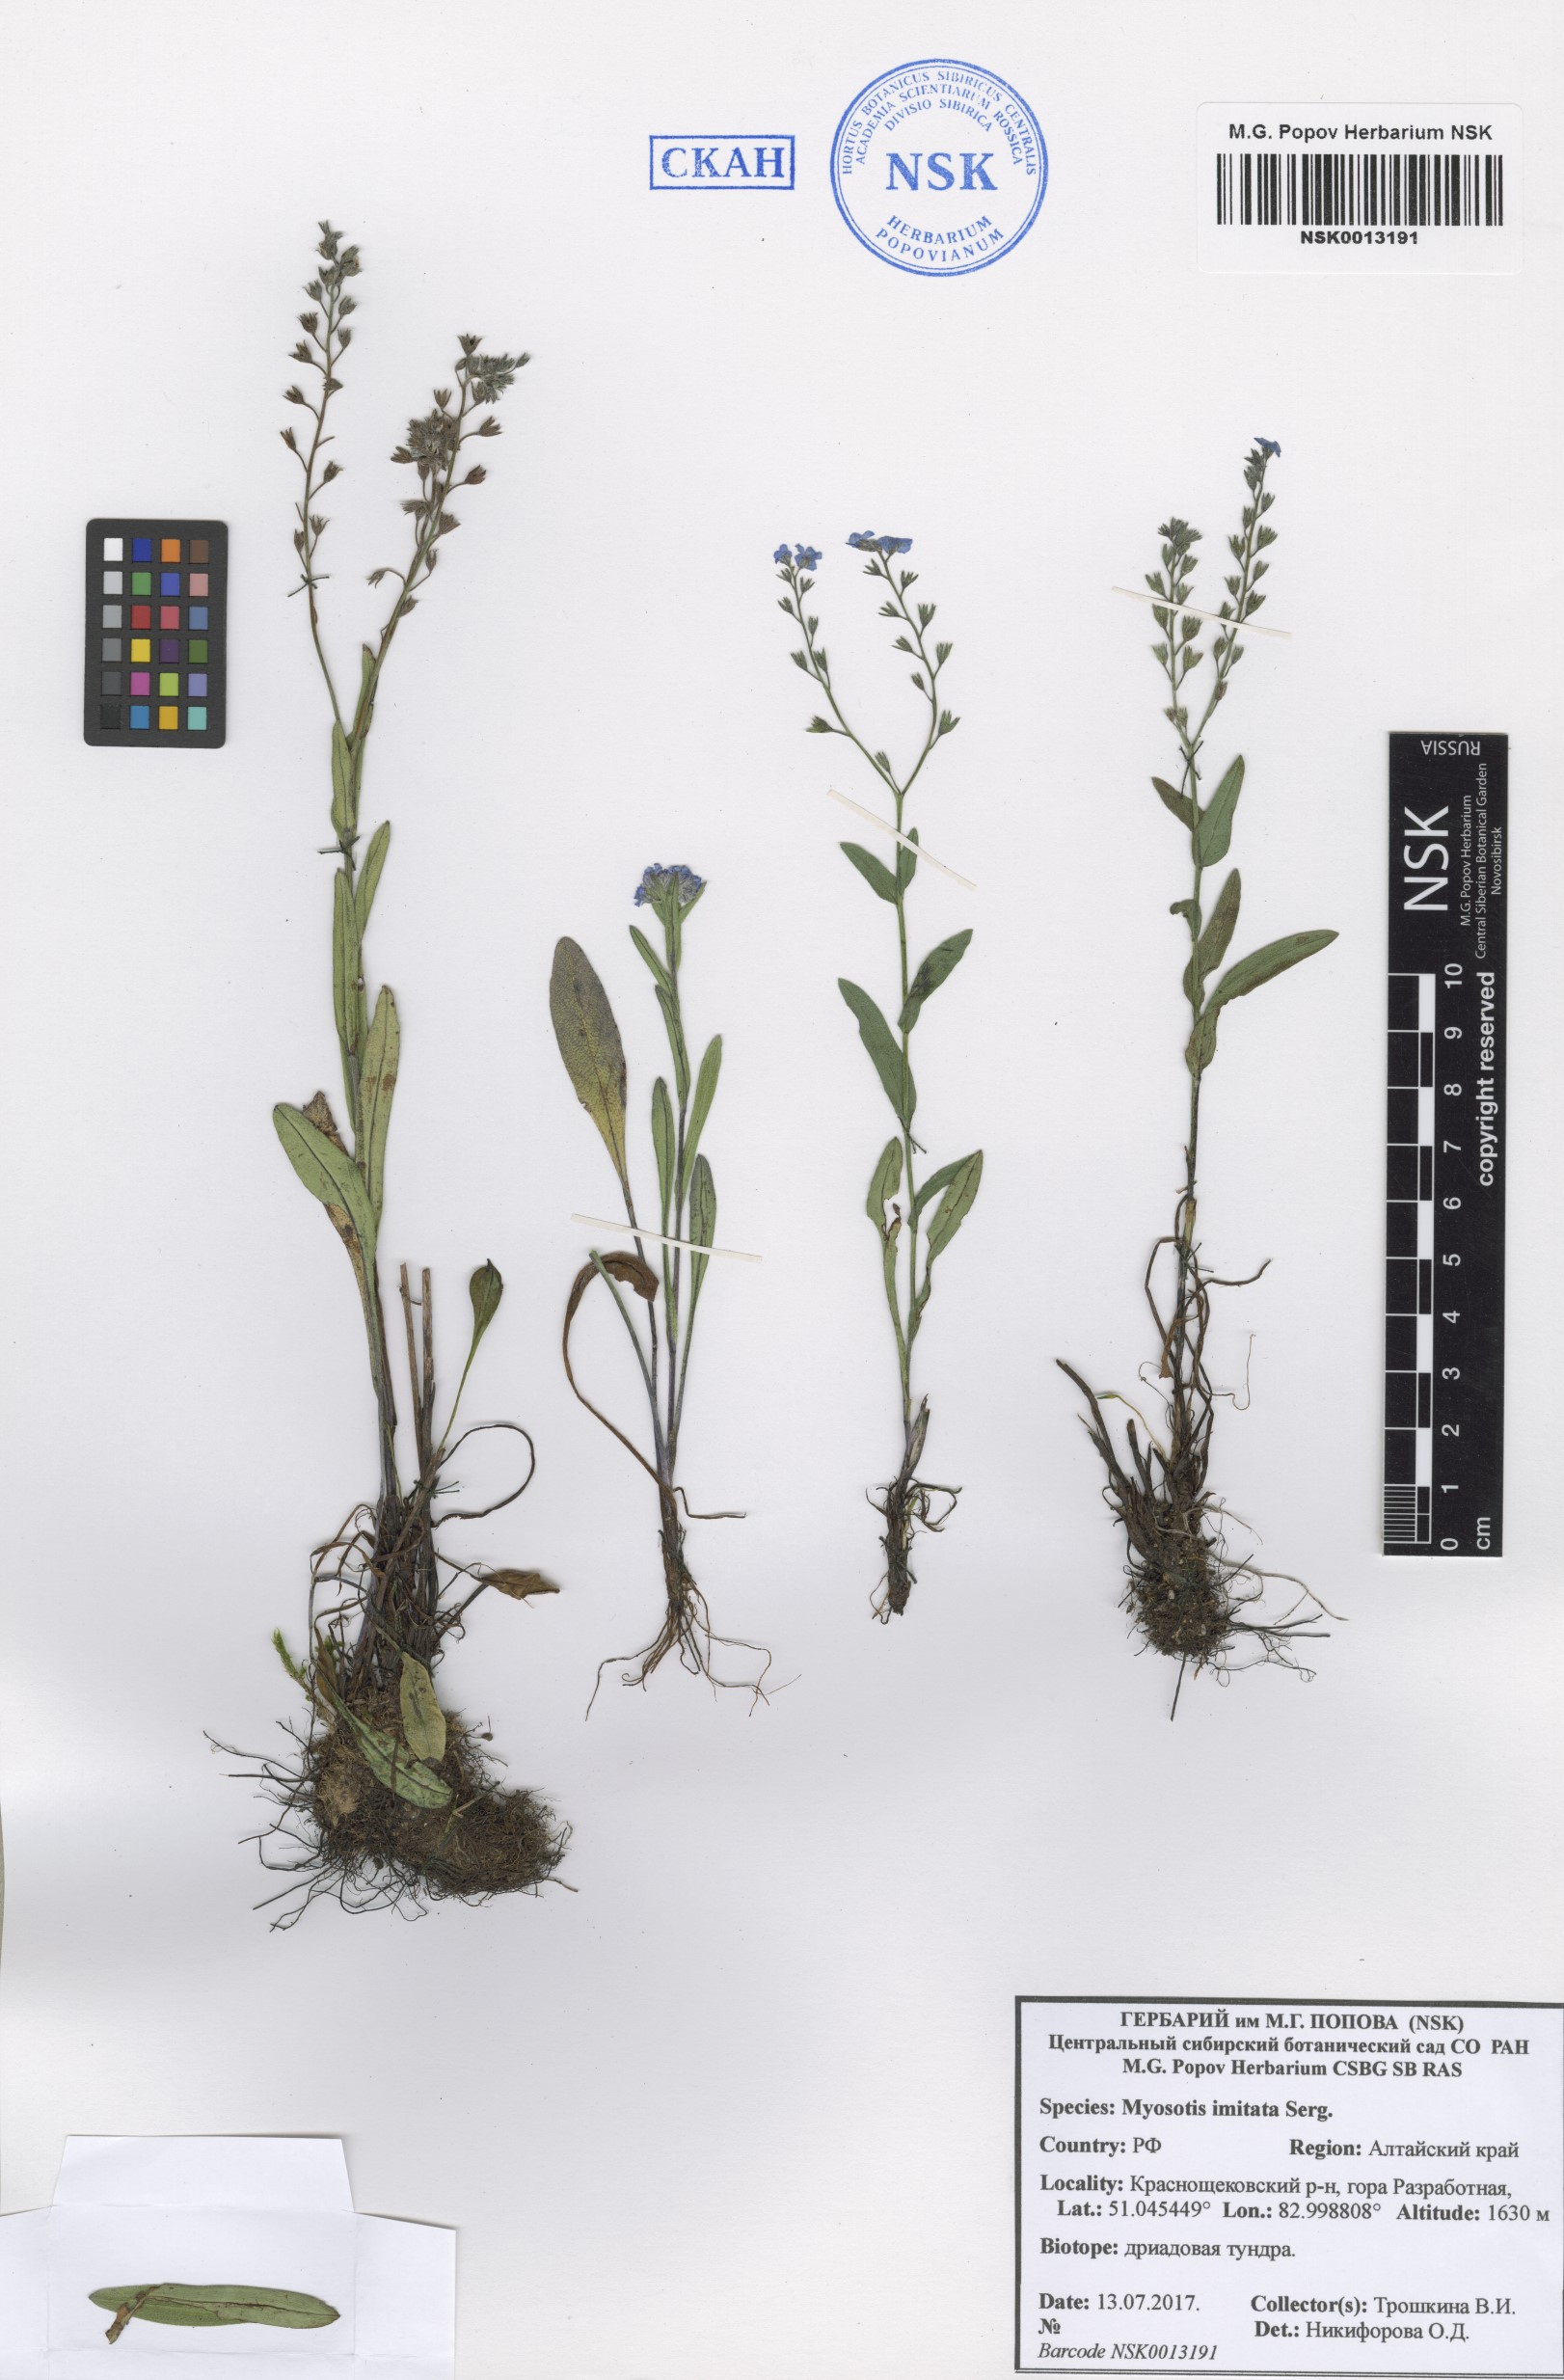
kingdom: Plantae
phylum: Tracheophyta
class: Magnoliopsida
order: Boraginales
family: Boraginaceae
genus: Myosotis
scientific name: Myosotis imitata
